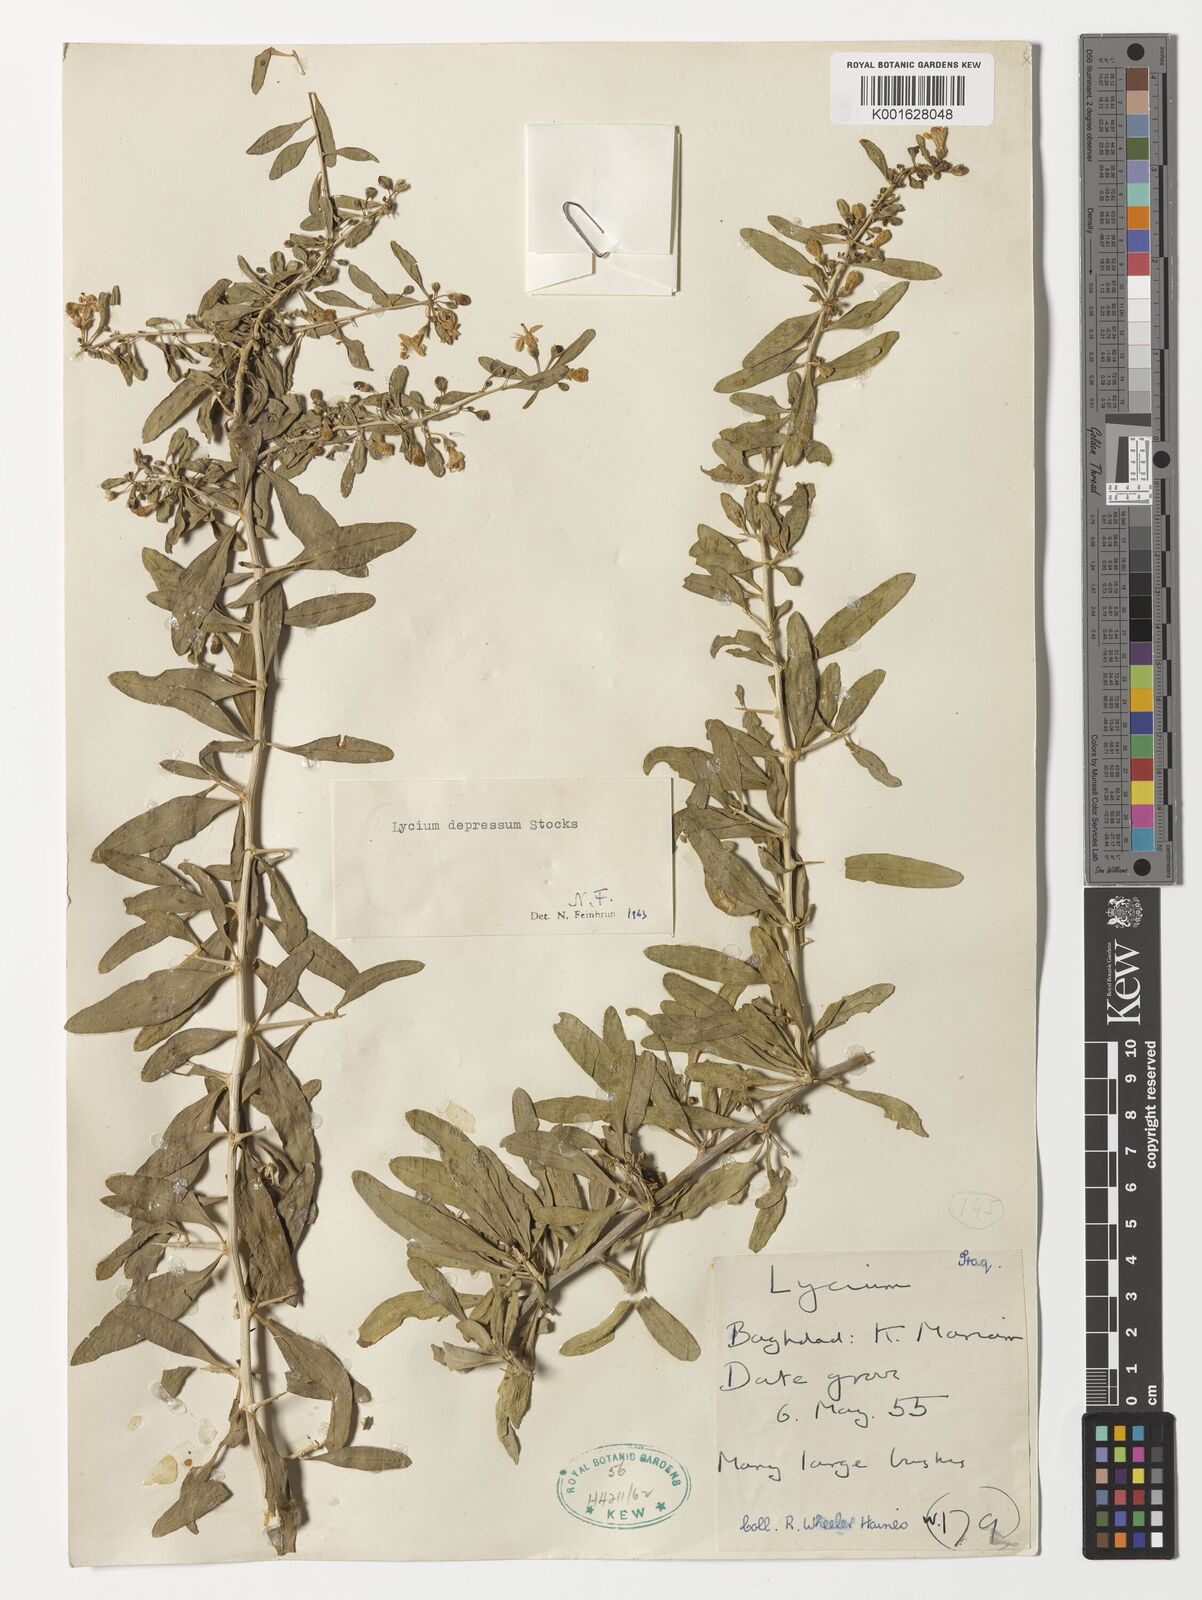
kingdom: Plantae
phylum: Tracheophyta
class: Magnoliopsida
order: Solanales
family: Solanaceae
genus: Lycium
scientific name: Lycium depressum
